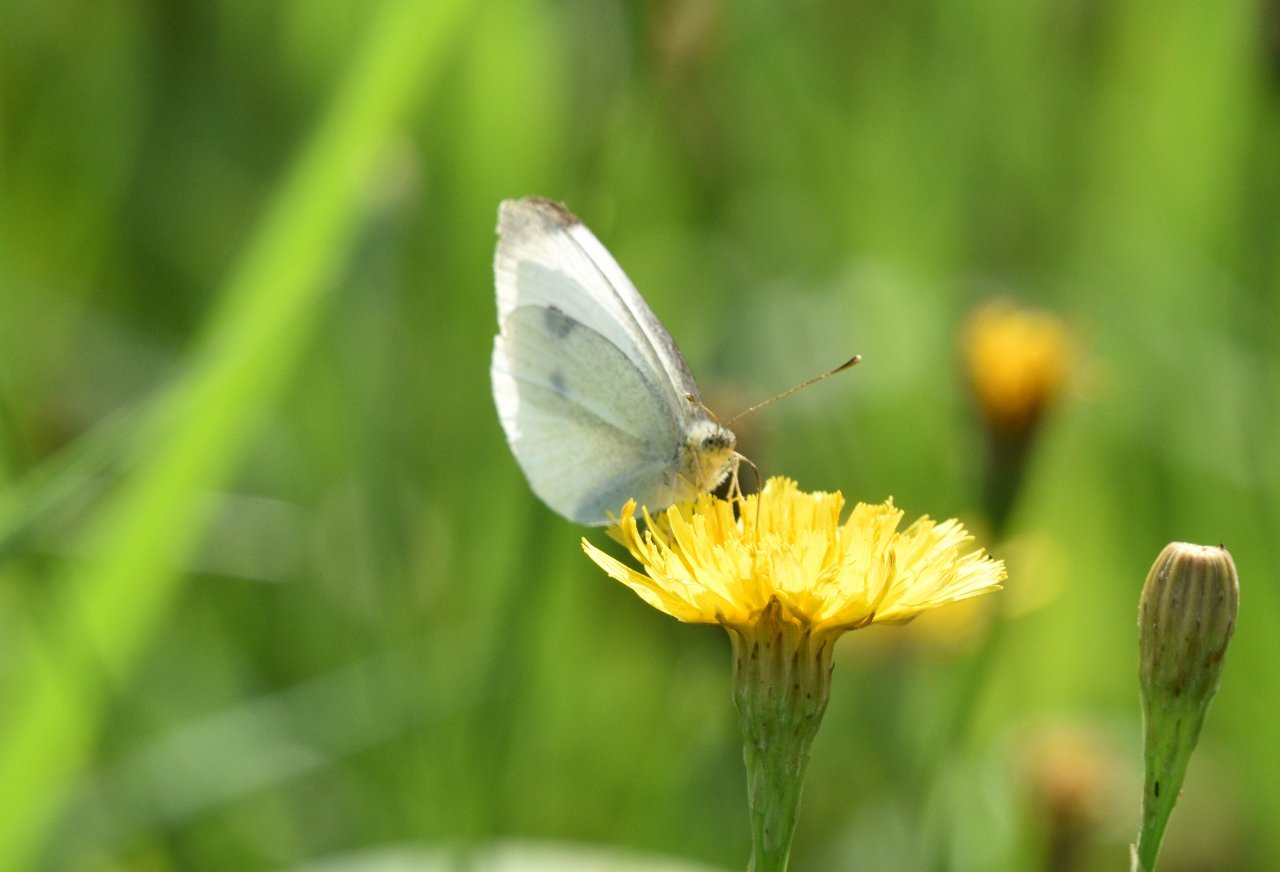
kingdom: Animalia
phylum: Arthropoda
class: Insecta
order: Lepidoptera
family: Pieridae
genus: Pieris
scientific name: Pieris rapae
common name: Cabbage White
